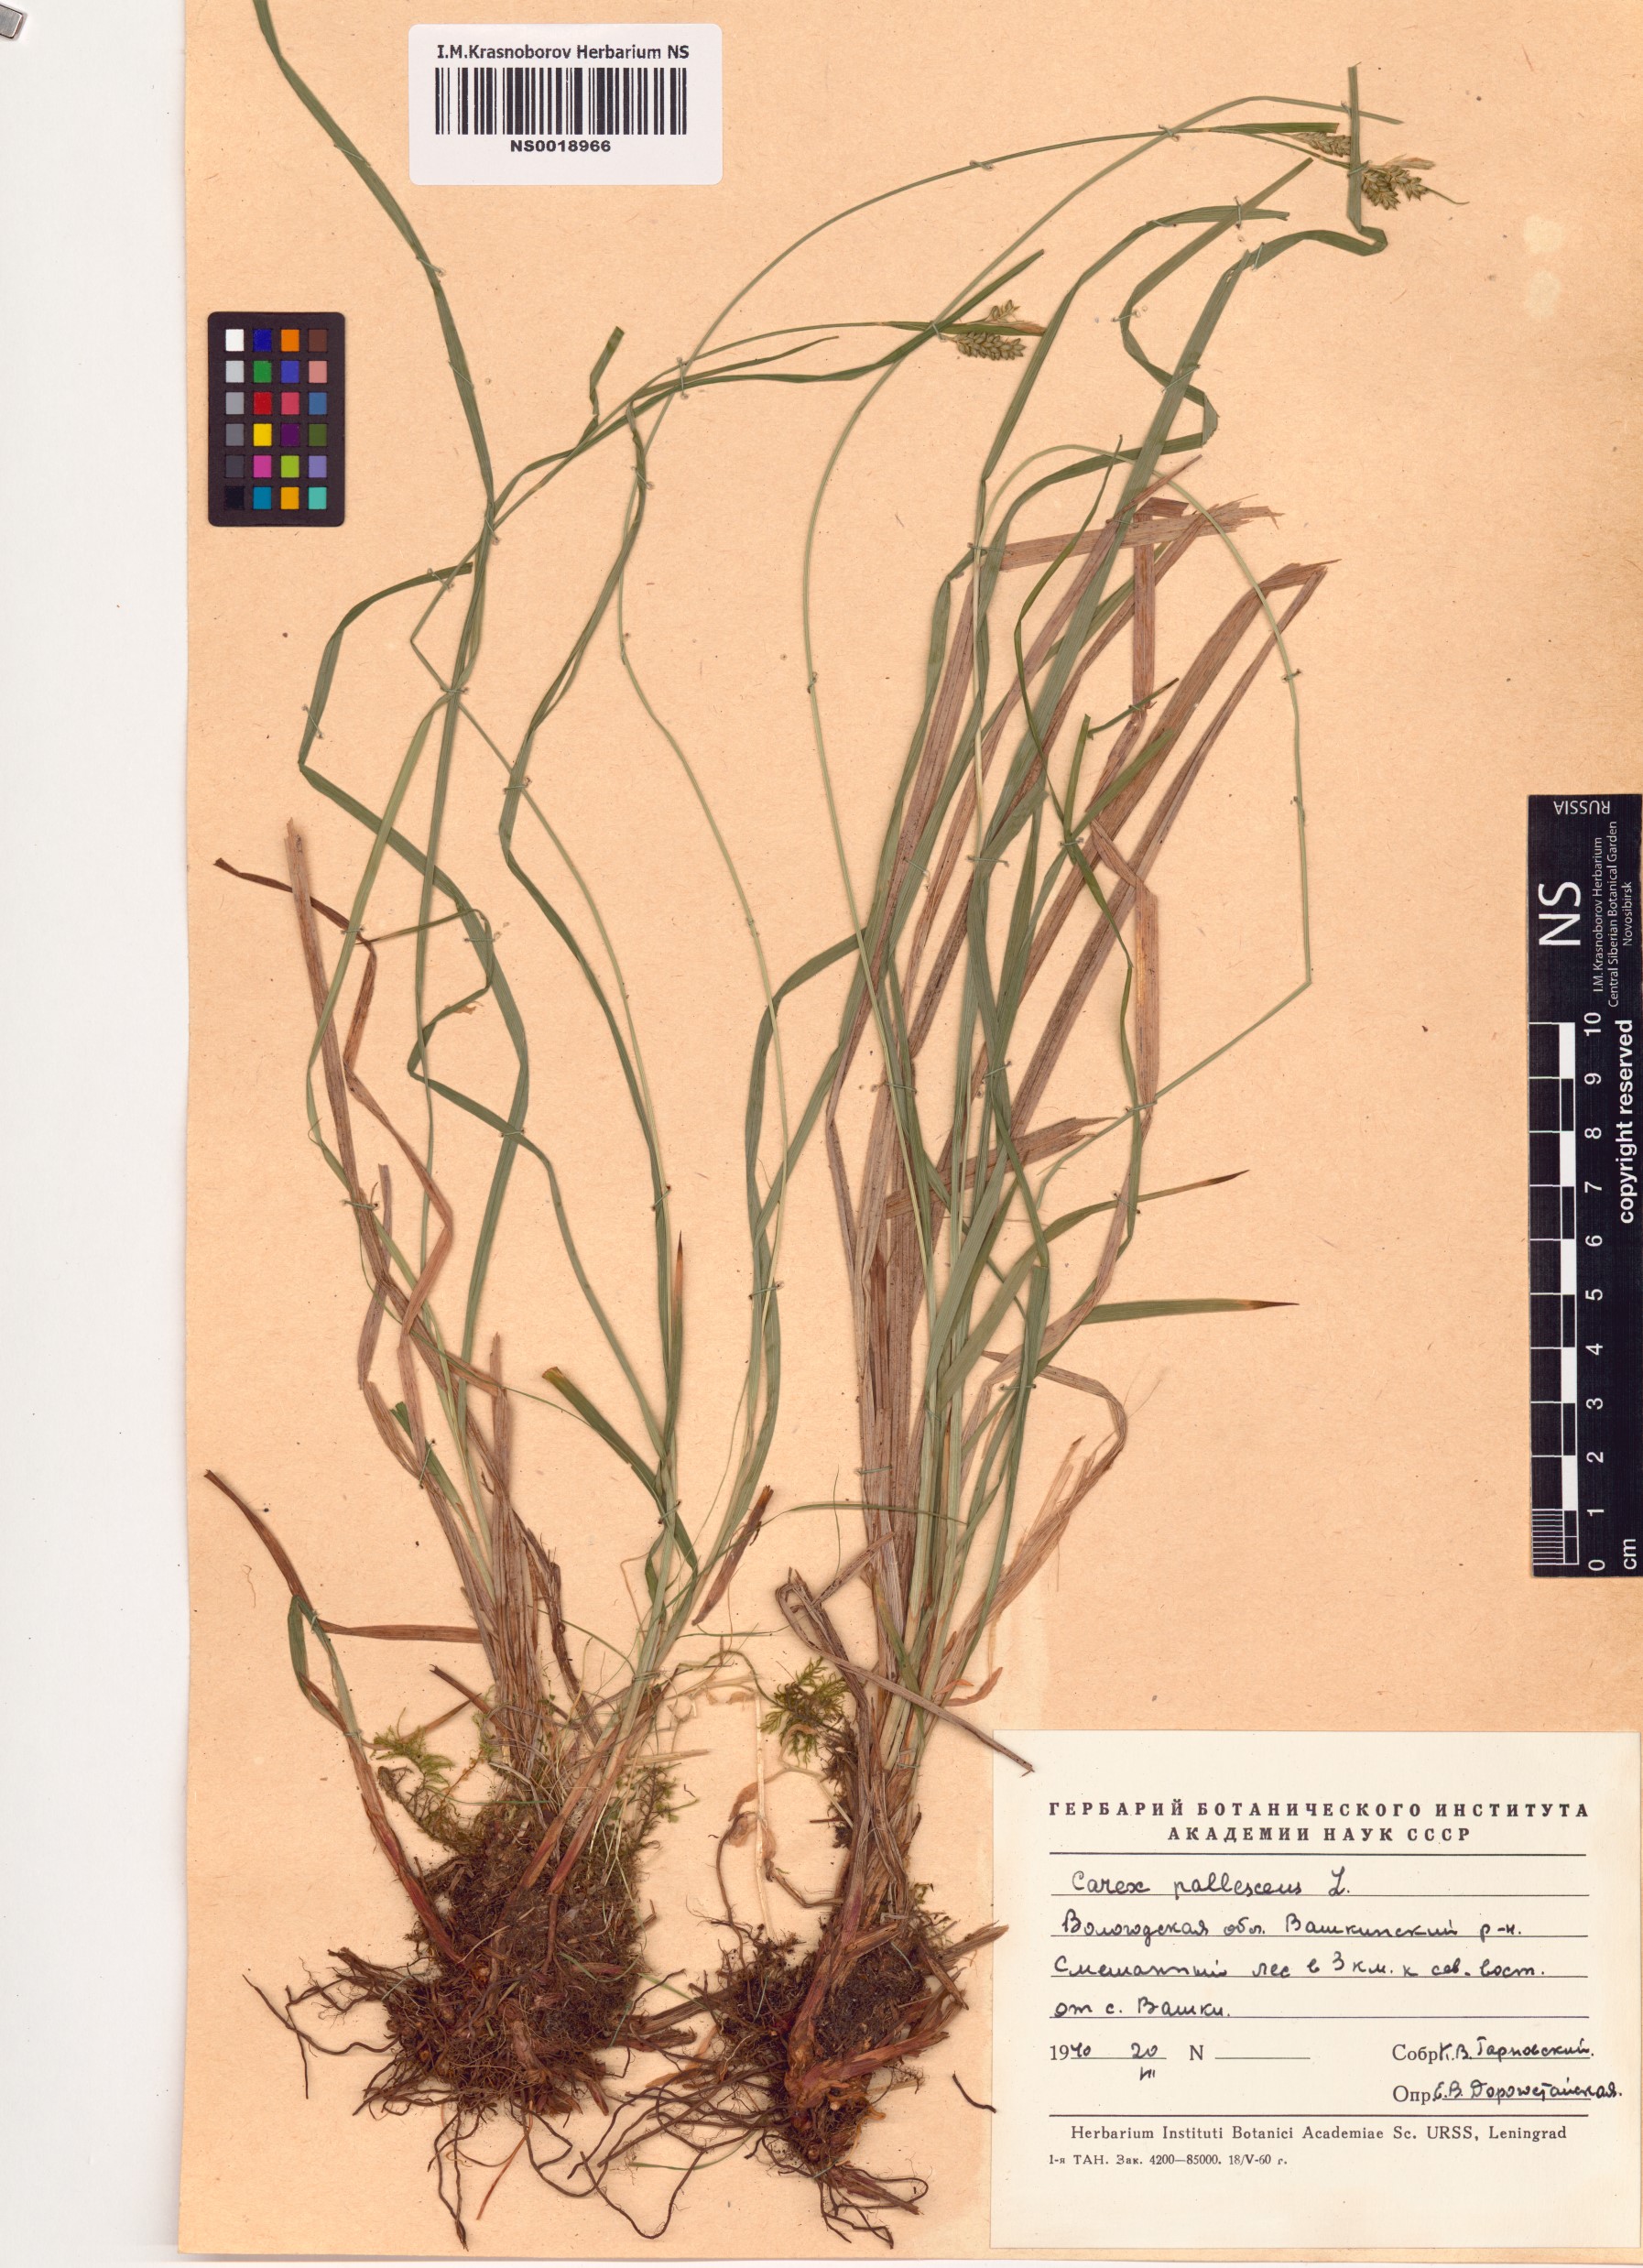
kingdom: Plantae
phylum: Tracheophyta
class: Liliopsida
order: Poales
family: Cyperaceae
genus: Carex
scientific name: Carex pallescens
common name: Pale sedge
